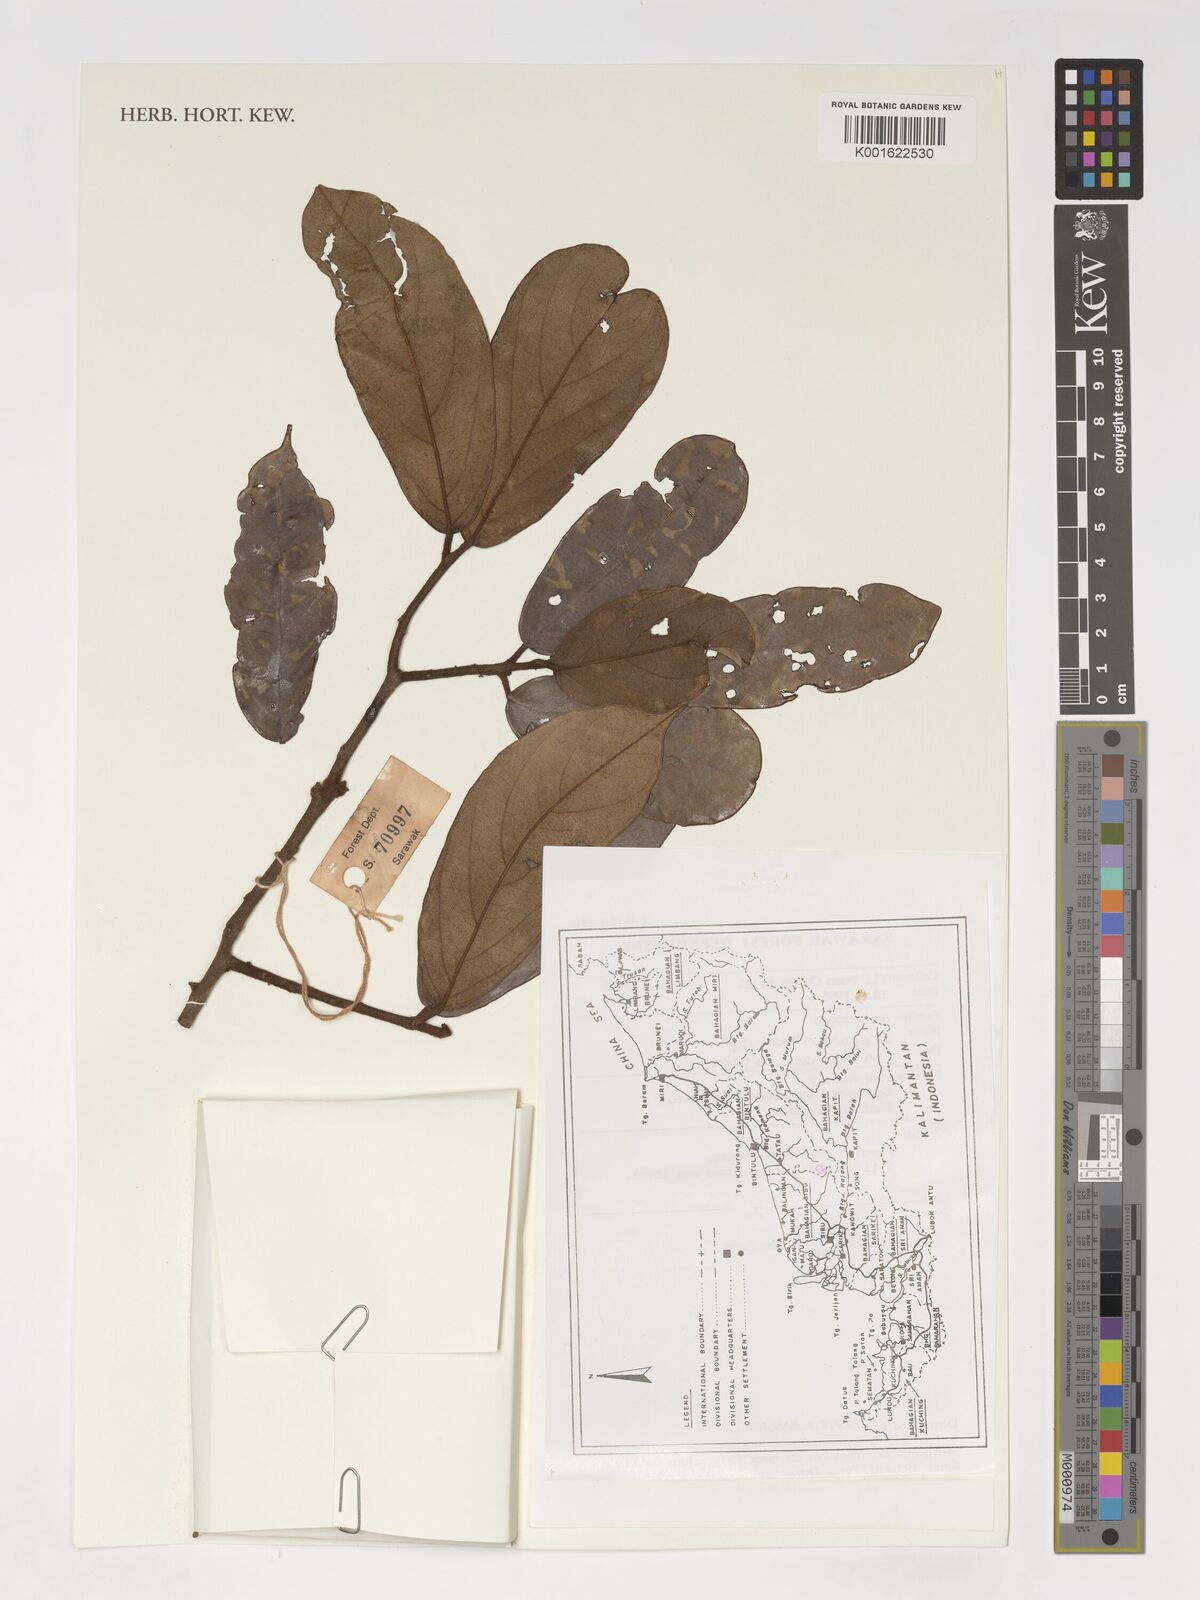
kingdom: Plantae
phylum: Tracheophyta
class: Magnoliopsida
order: Magnoliales
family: Annonaceae
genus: Drepananthus
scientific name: Drepananthus
